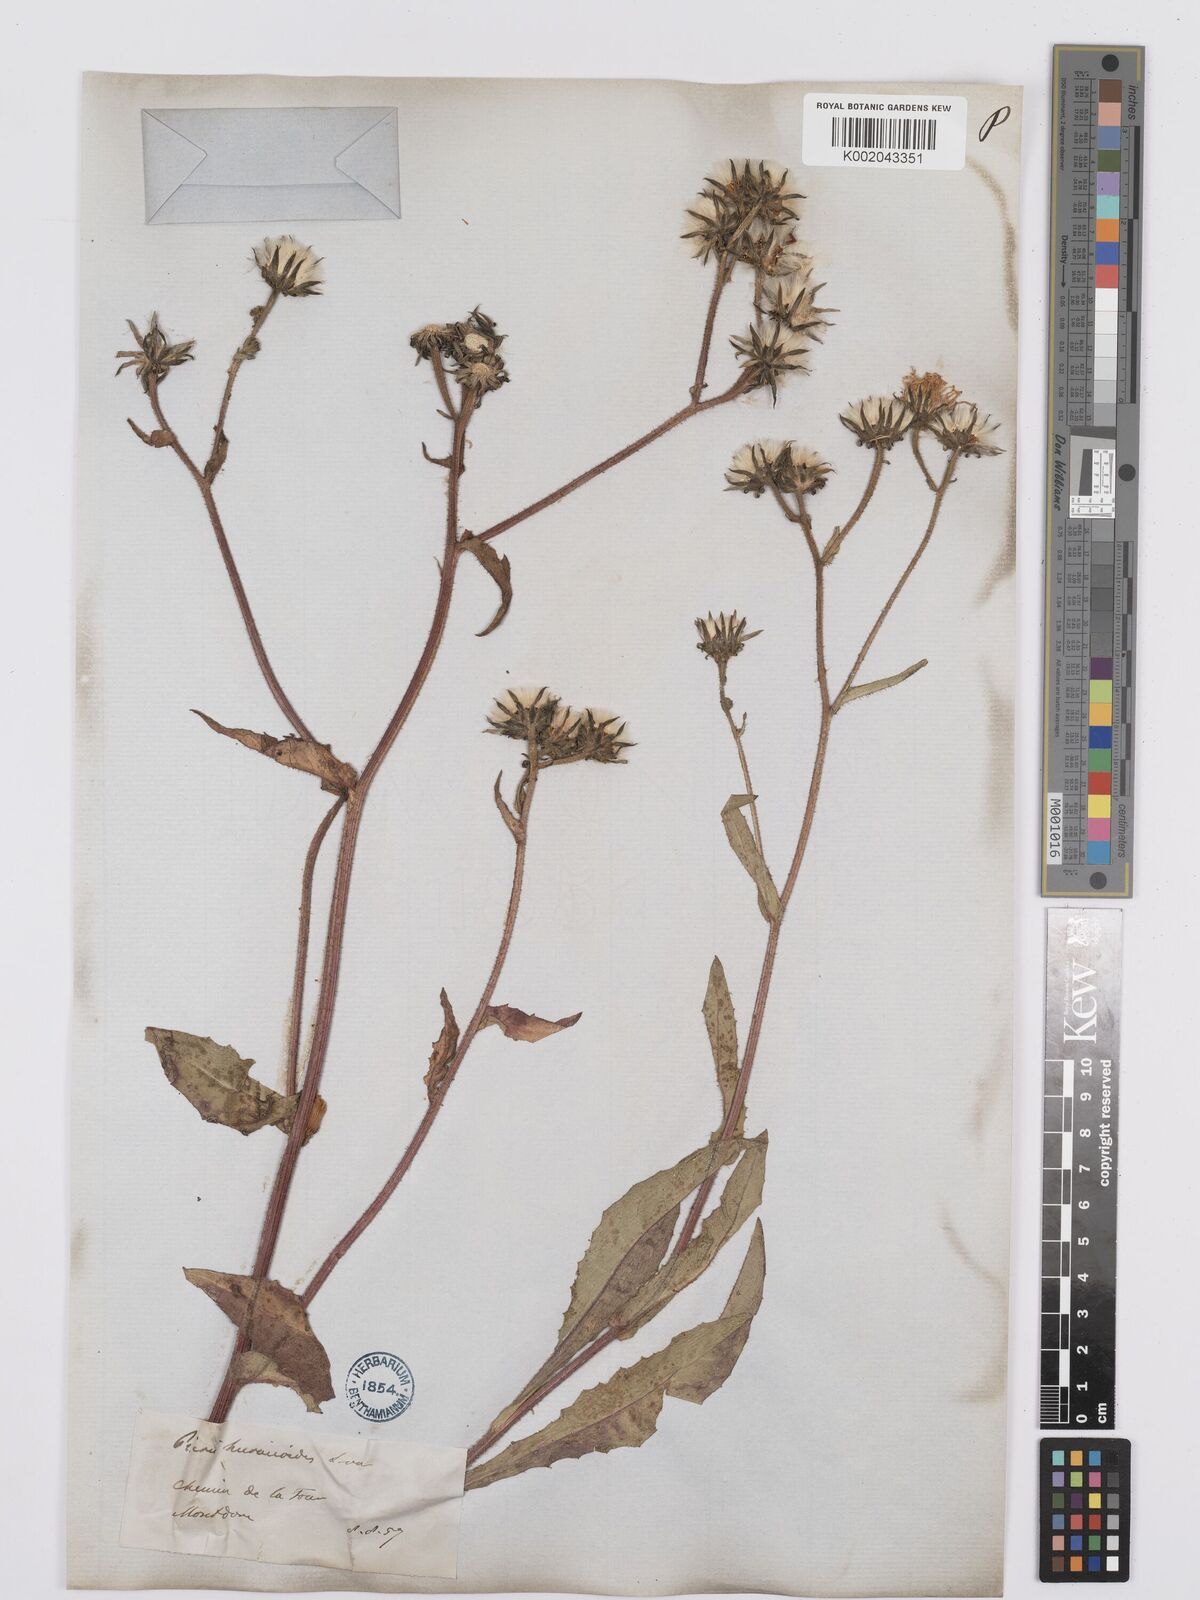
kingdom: Plantae
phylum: Tracheophyta
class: Magnoliopsida
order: Asterales
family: Asteraceae
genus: Picris
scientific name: Picris hieracioides
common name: Hawkweed oxtongue
